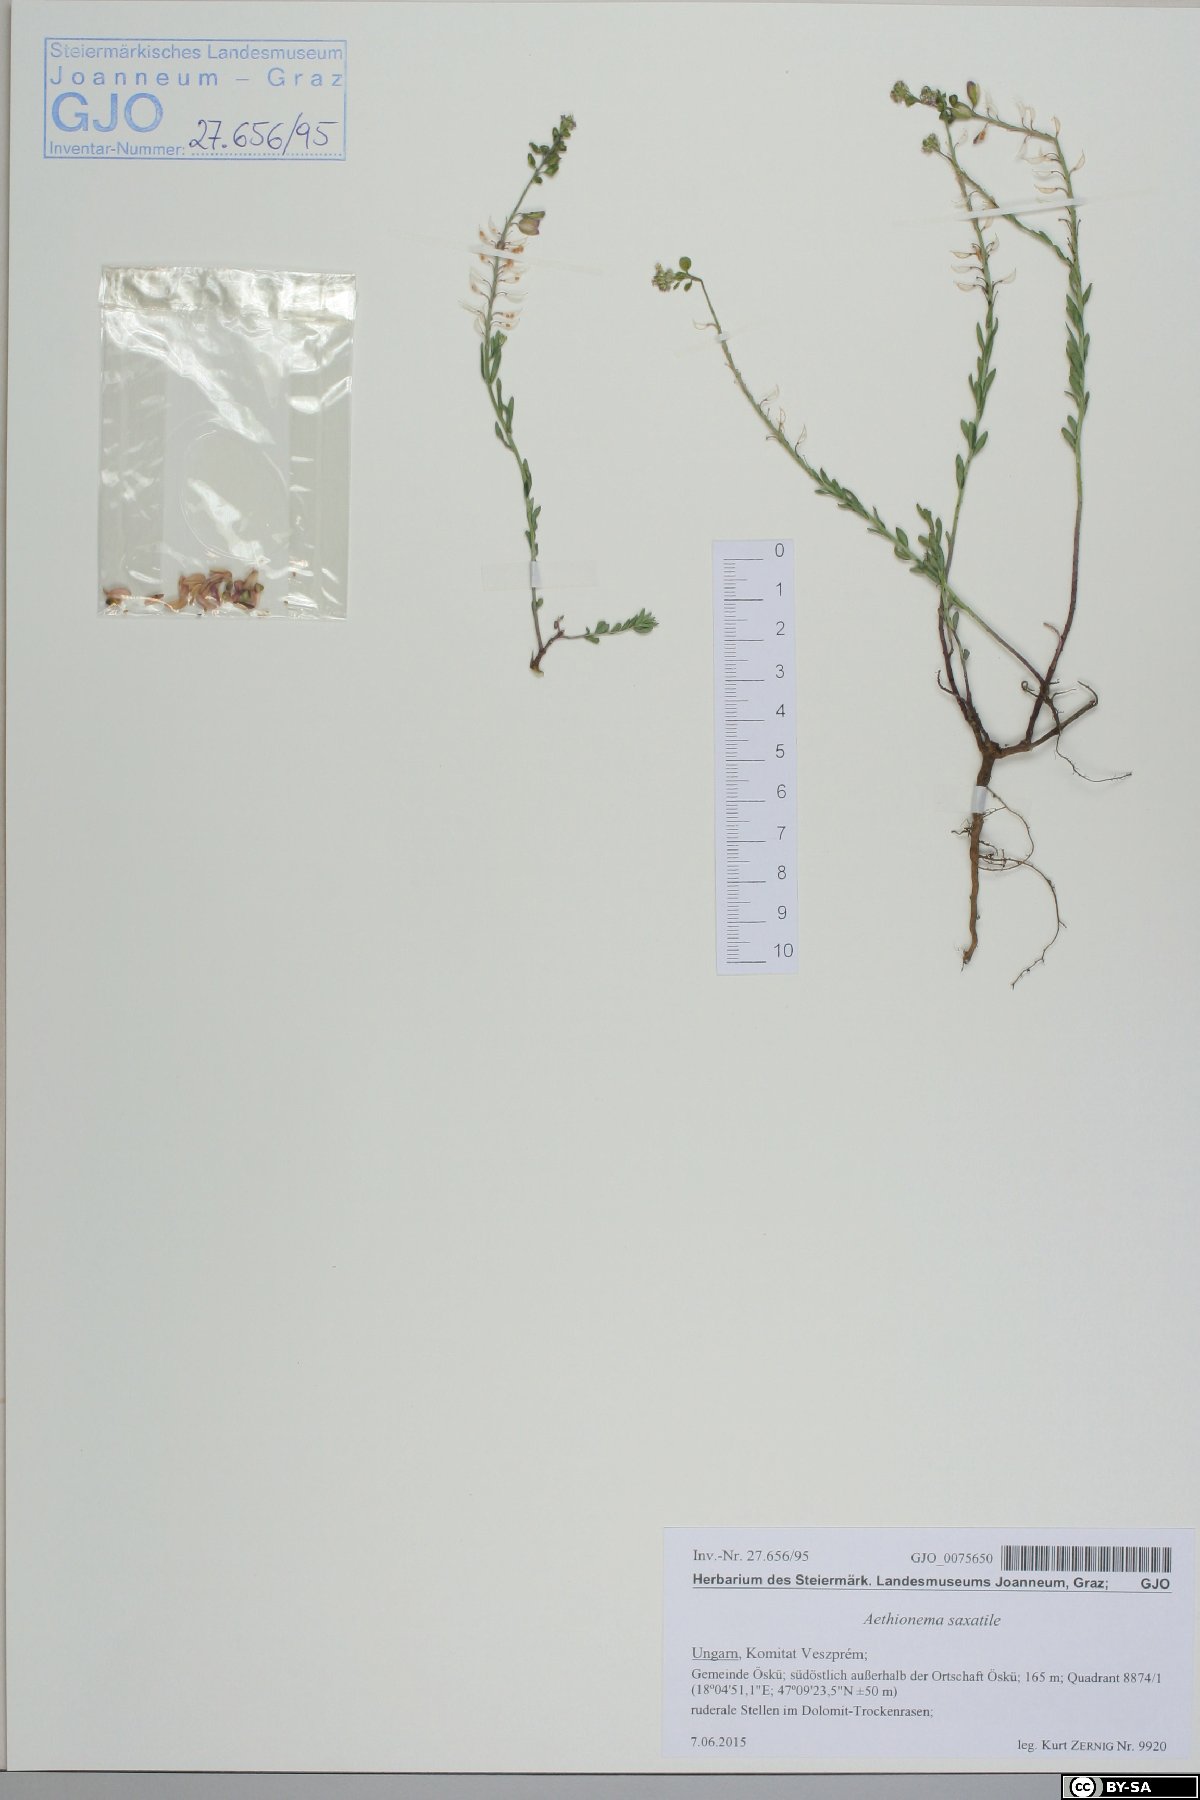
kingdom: Plantae
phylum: Tracheophyta
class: Magnoliopsida
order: Brassicales
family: Brassicaceae
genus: Aethionema
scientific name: Aethionema saxatile
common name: Burnt candytuft
